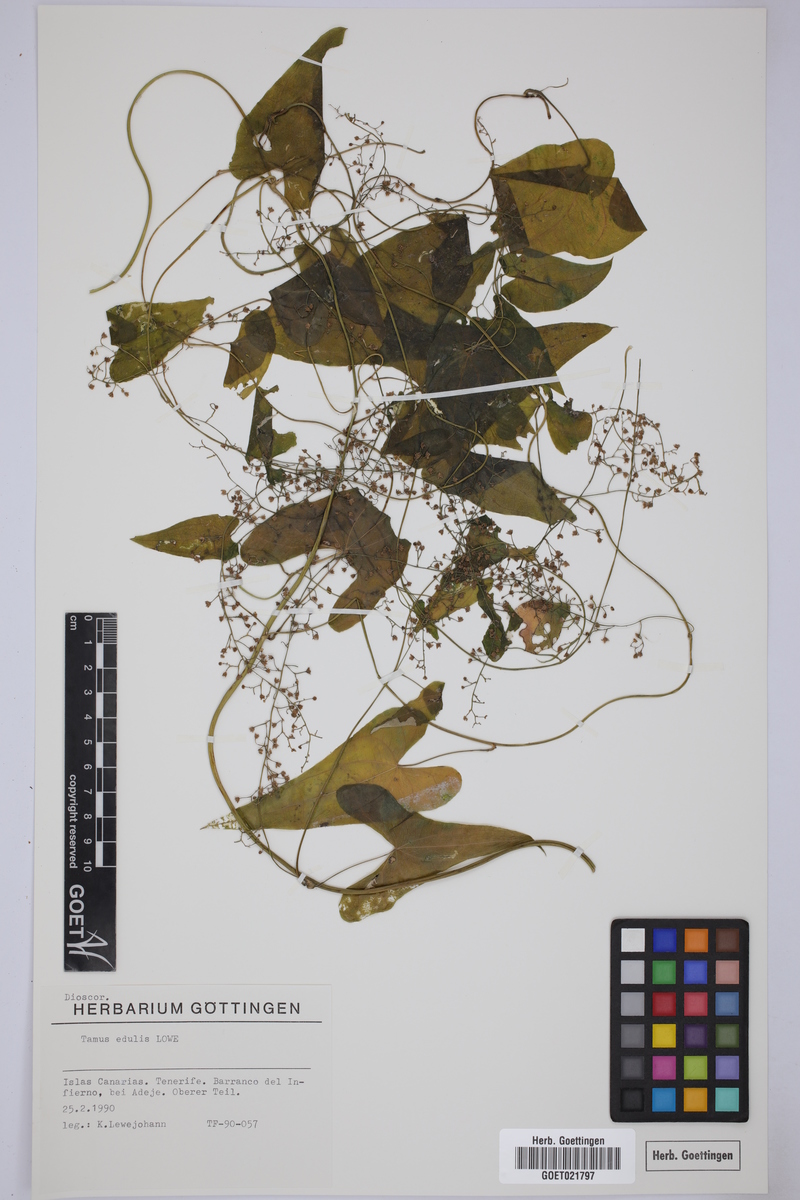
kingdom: Plantae
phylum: Tracheophyta
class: Liliopsida
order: Dioscoreales
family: Dioscoreaceae
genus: Dioscorea
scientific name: Dioscorea communis
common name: Black-bindweed
